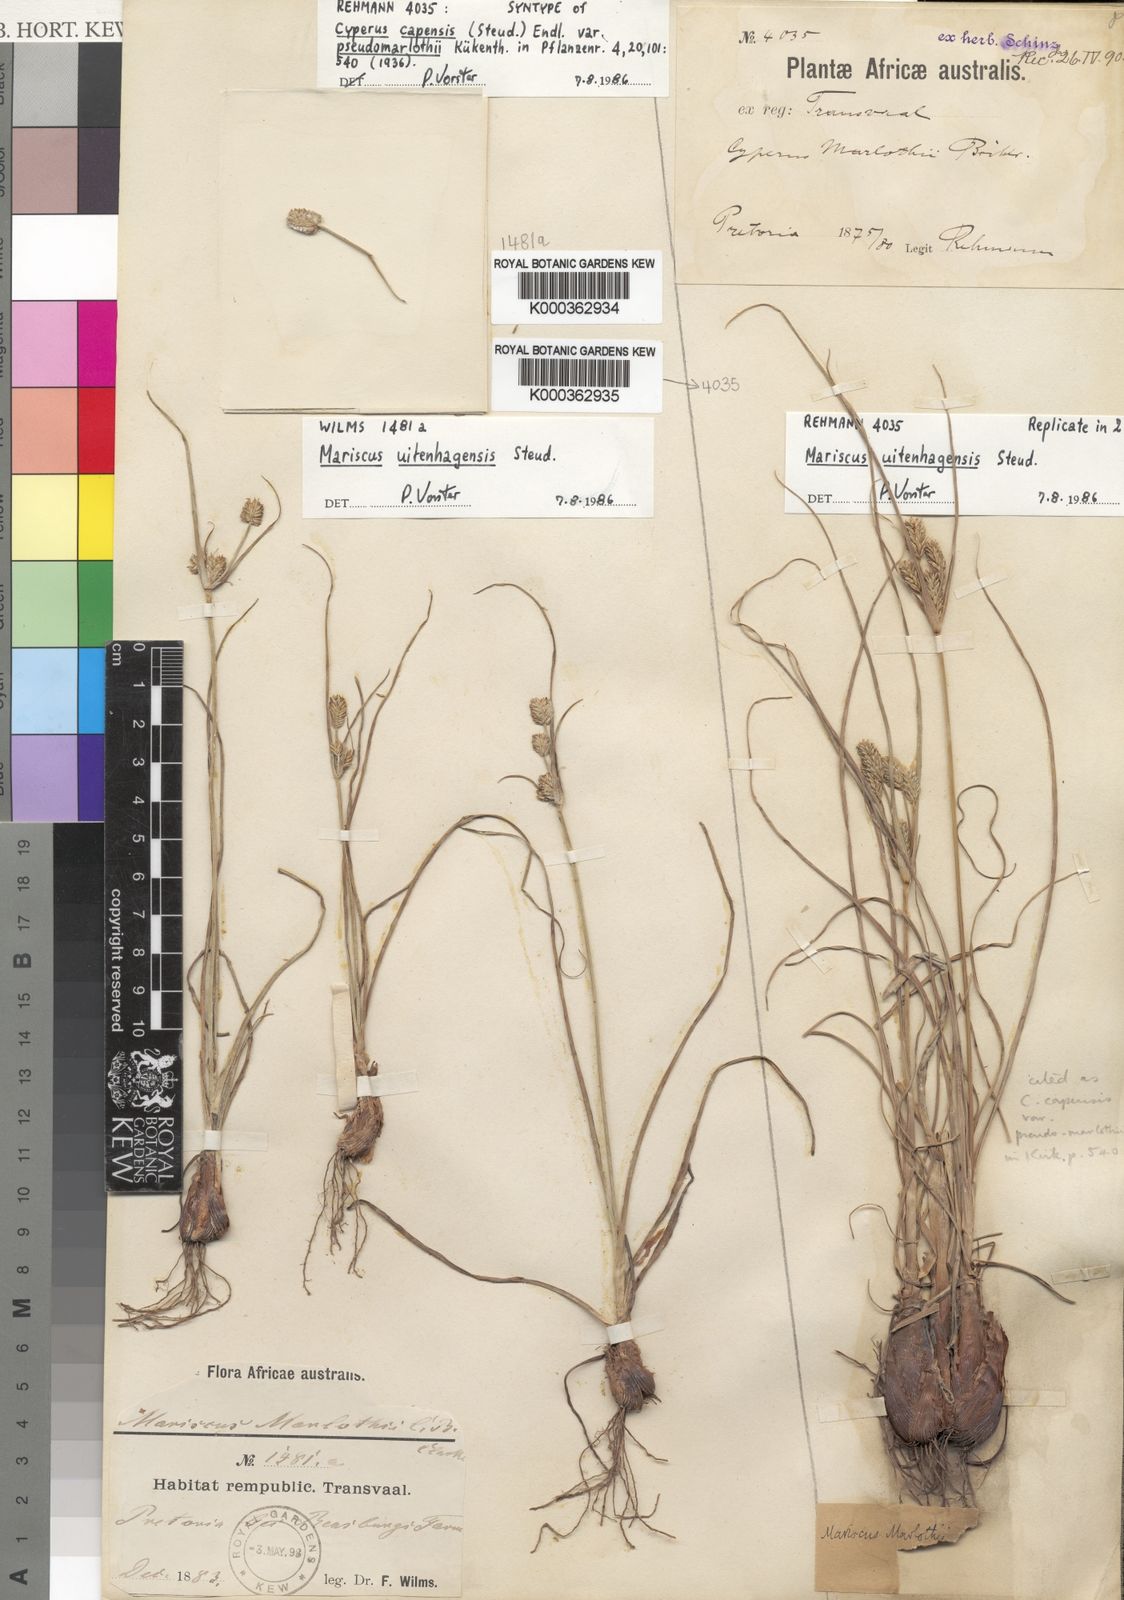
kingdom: Plantae
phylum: Tracheophyta
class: Liliopsida
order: Poales
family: Cyperaceae
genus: Cyperus
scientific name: Cyperus capensis
